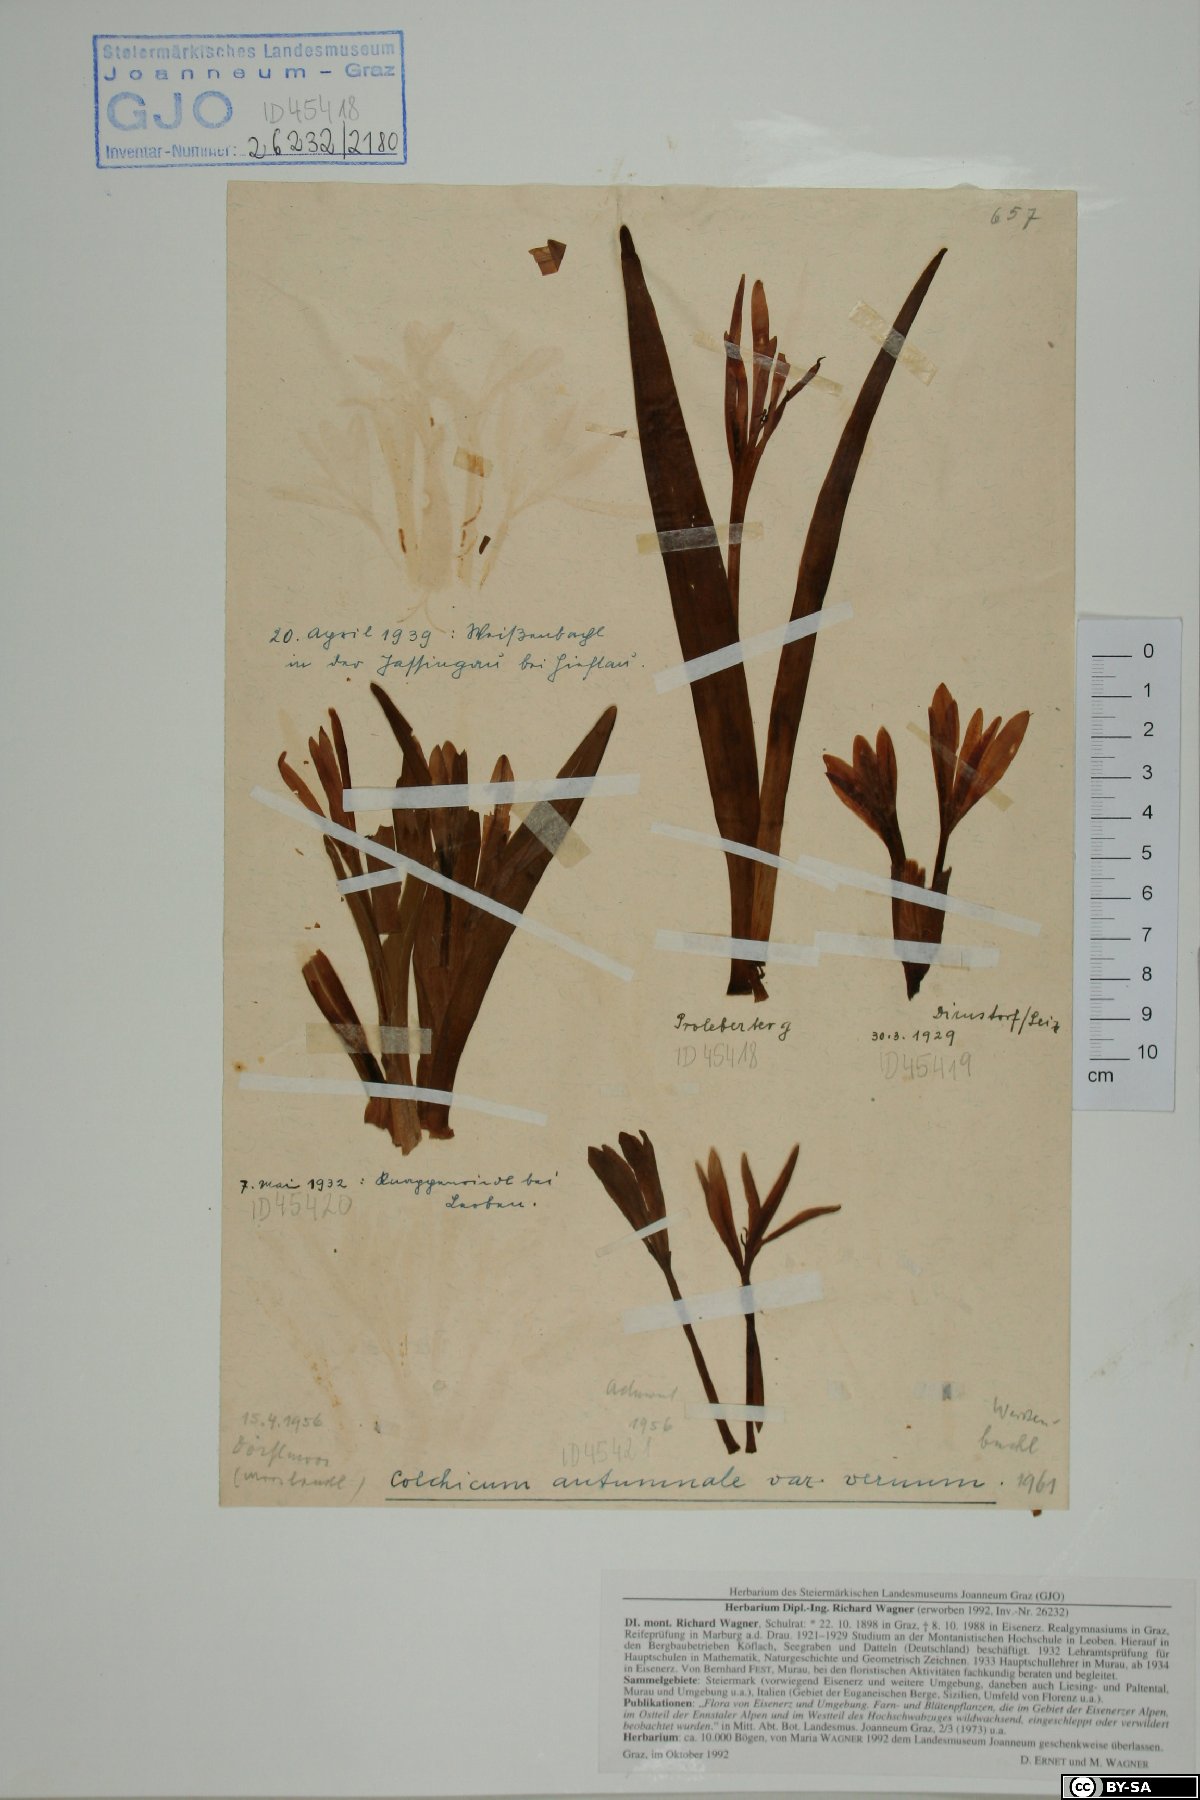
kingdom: Plantae
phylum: Tracheophyta
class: Liliopsida
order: Liliales
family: Colchicaceae
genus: Colchicum
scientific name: Colchicum autumnale
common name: Autumn crocus
